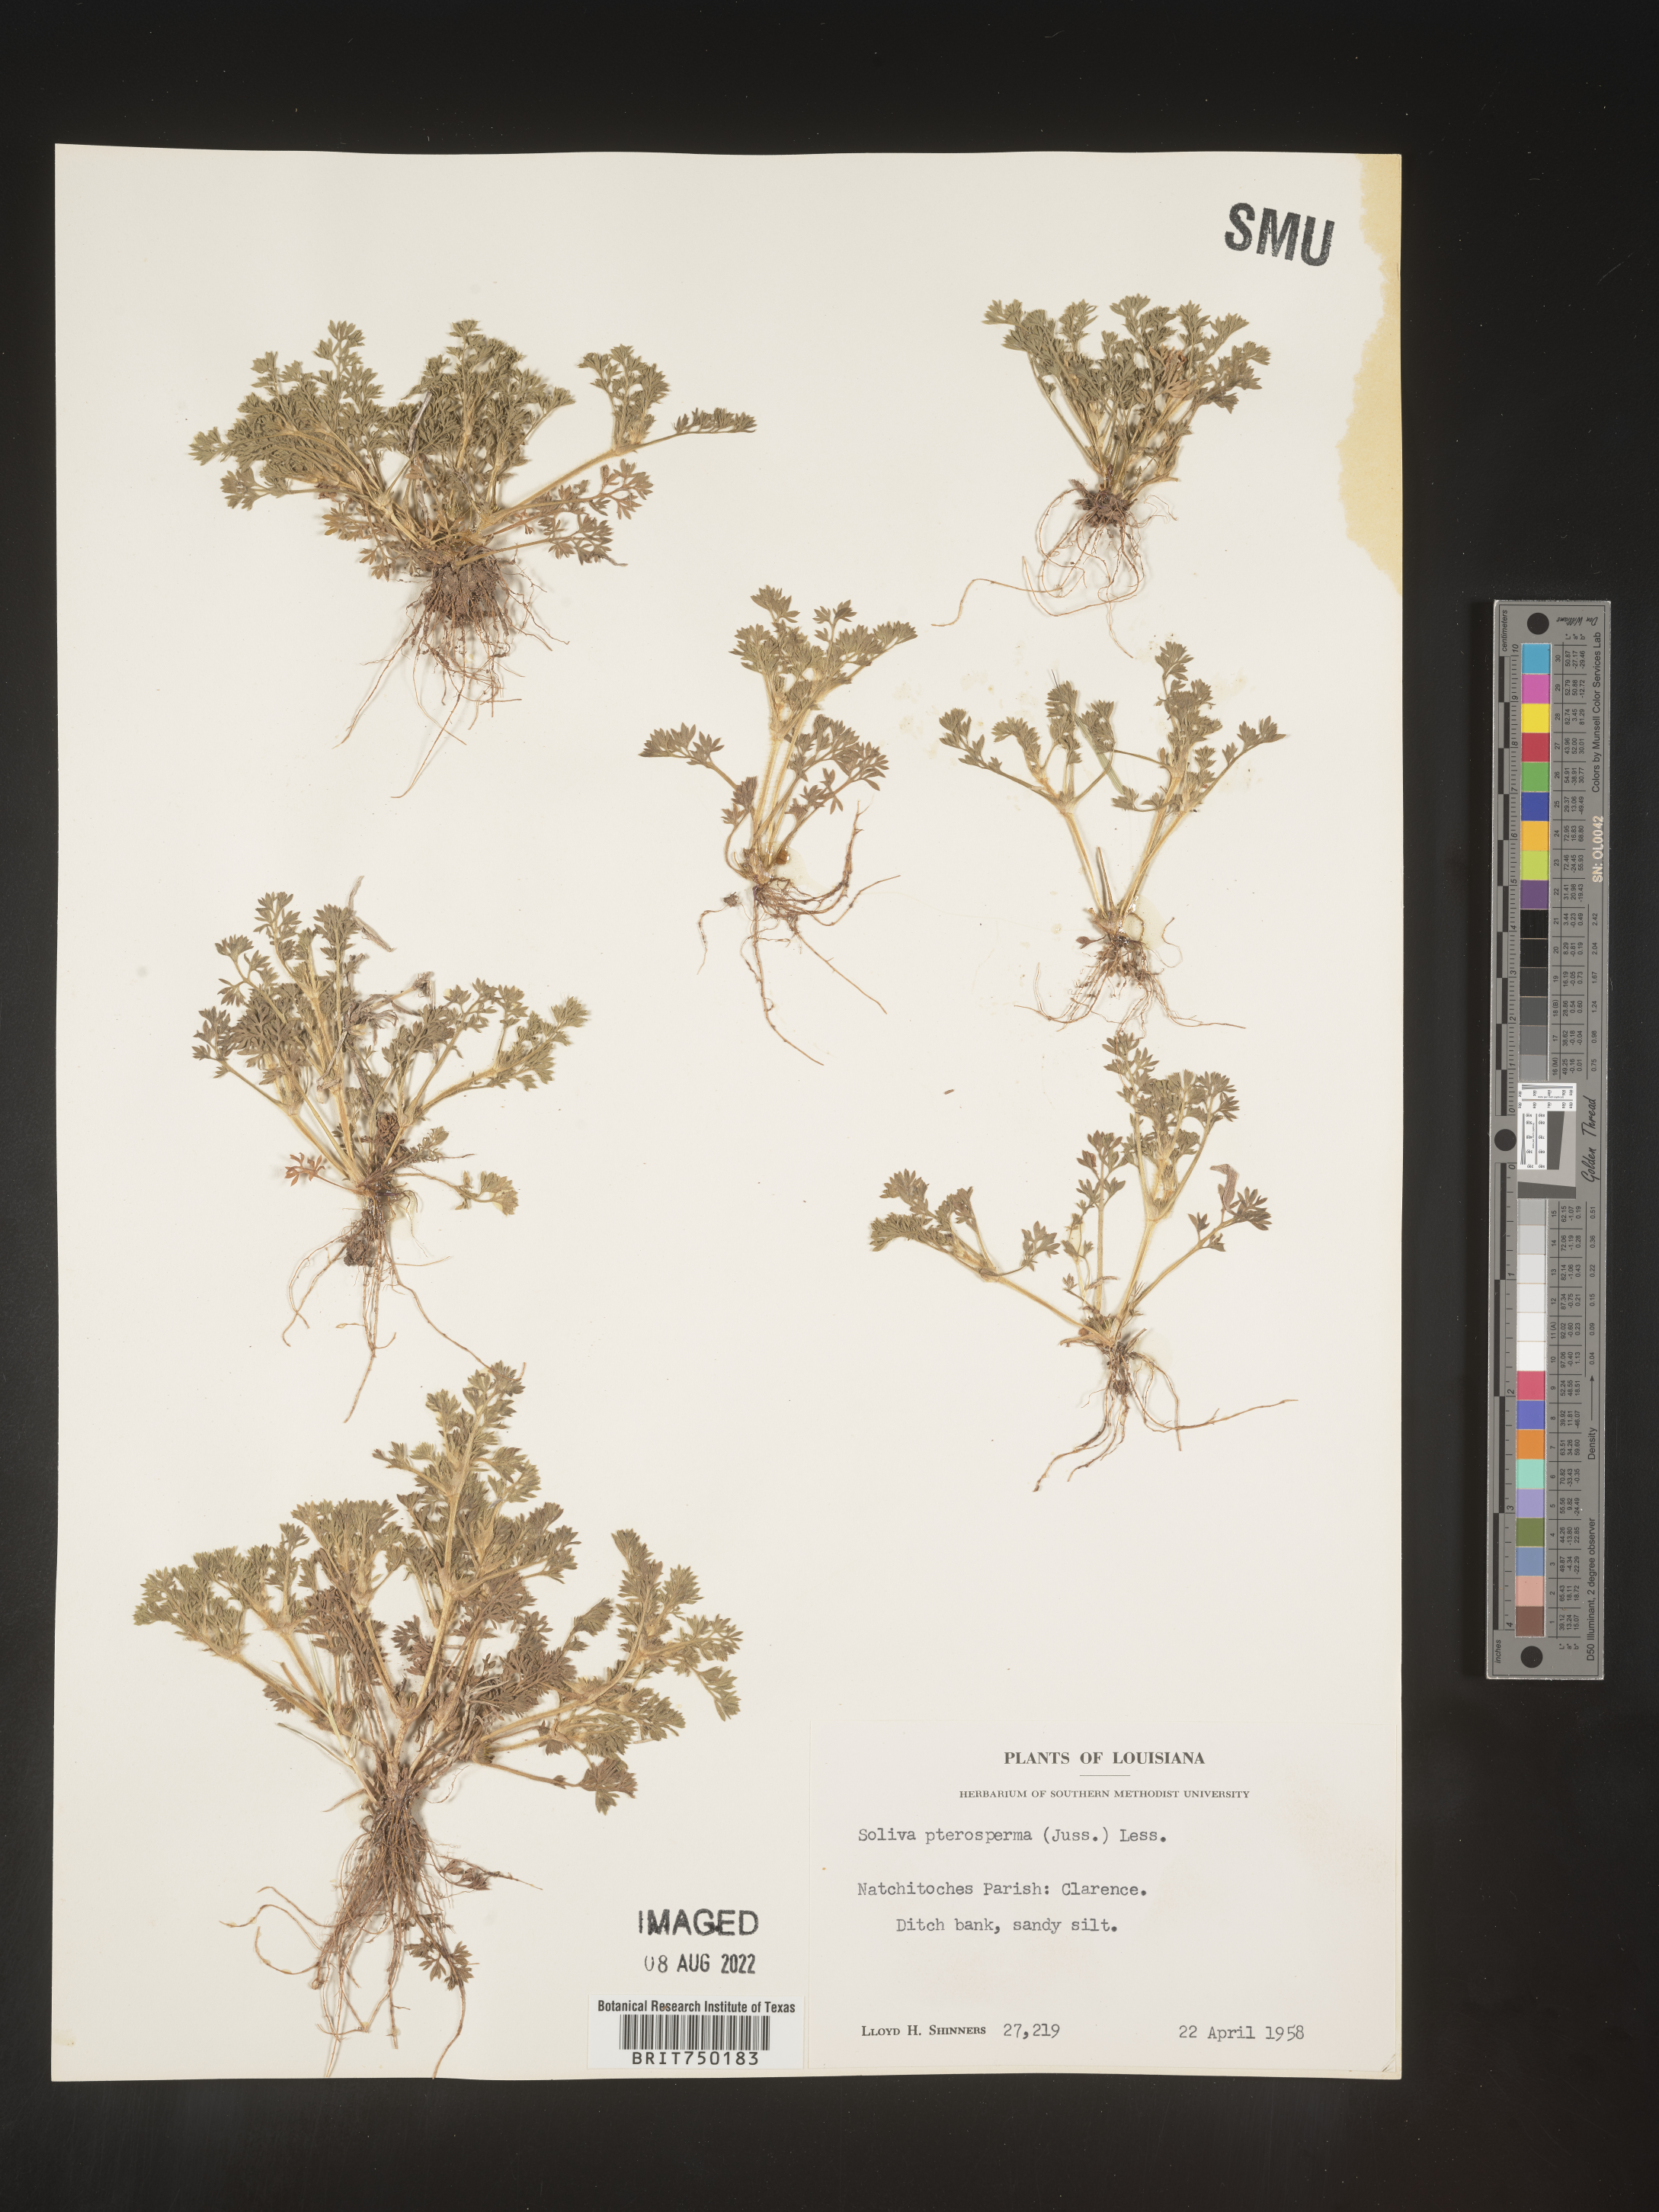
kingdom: Plantae
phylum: Tracheophyta
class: Magnoliopsida
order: Asterales
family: Asteraceae
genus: Soliva
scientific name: Soliva sessilis
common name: Field burrweed
